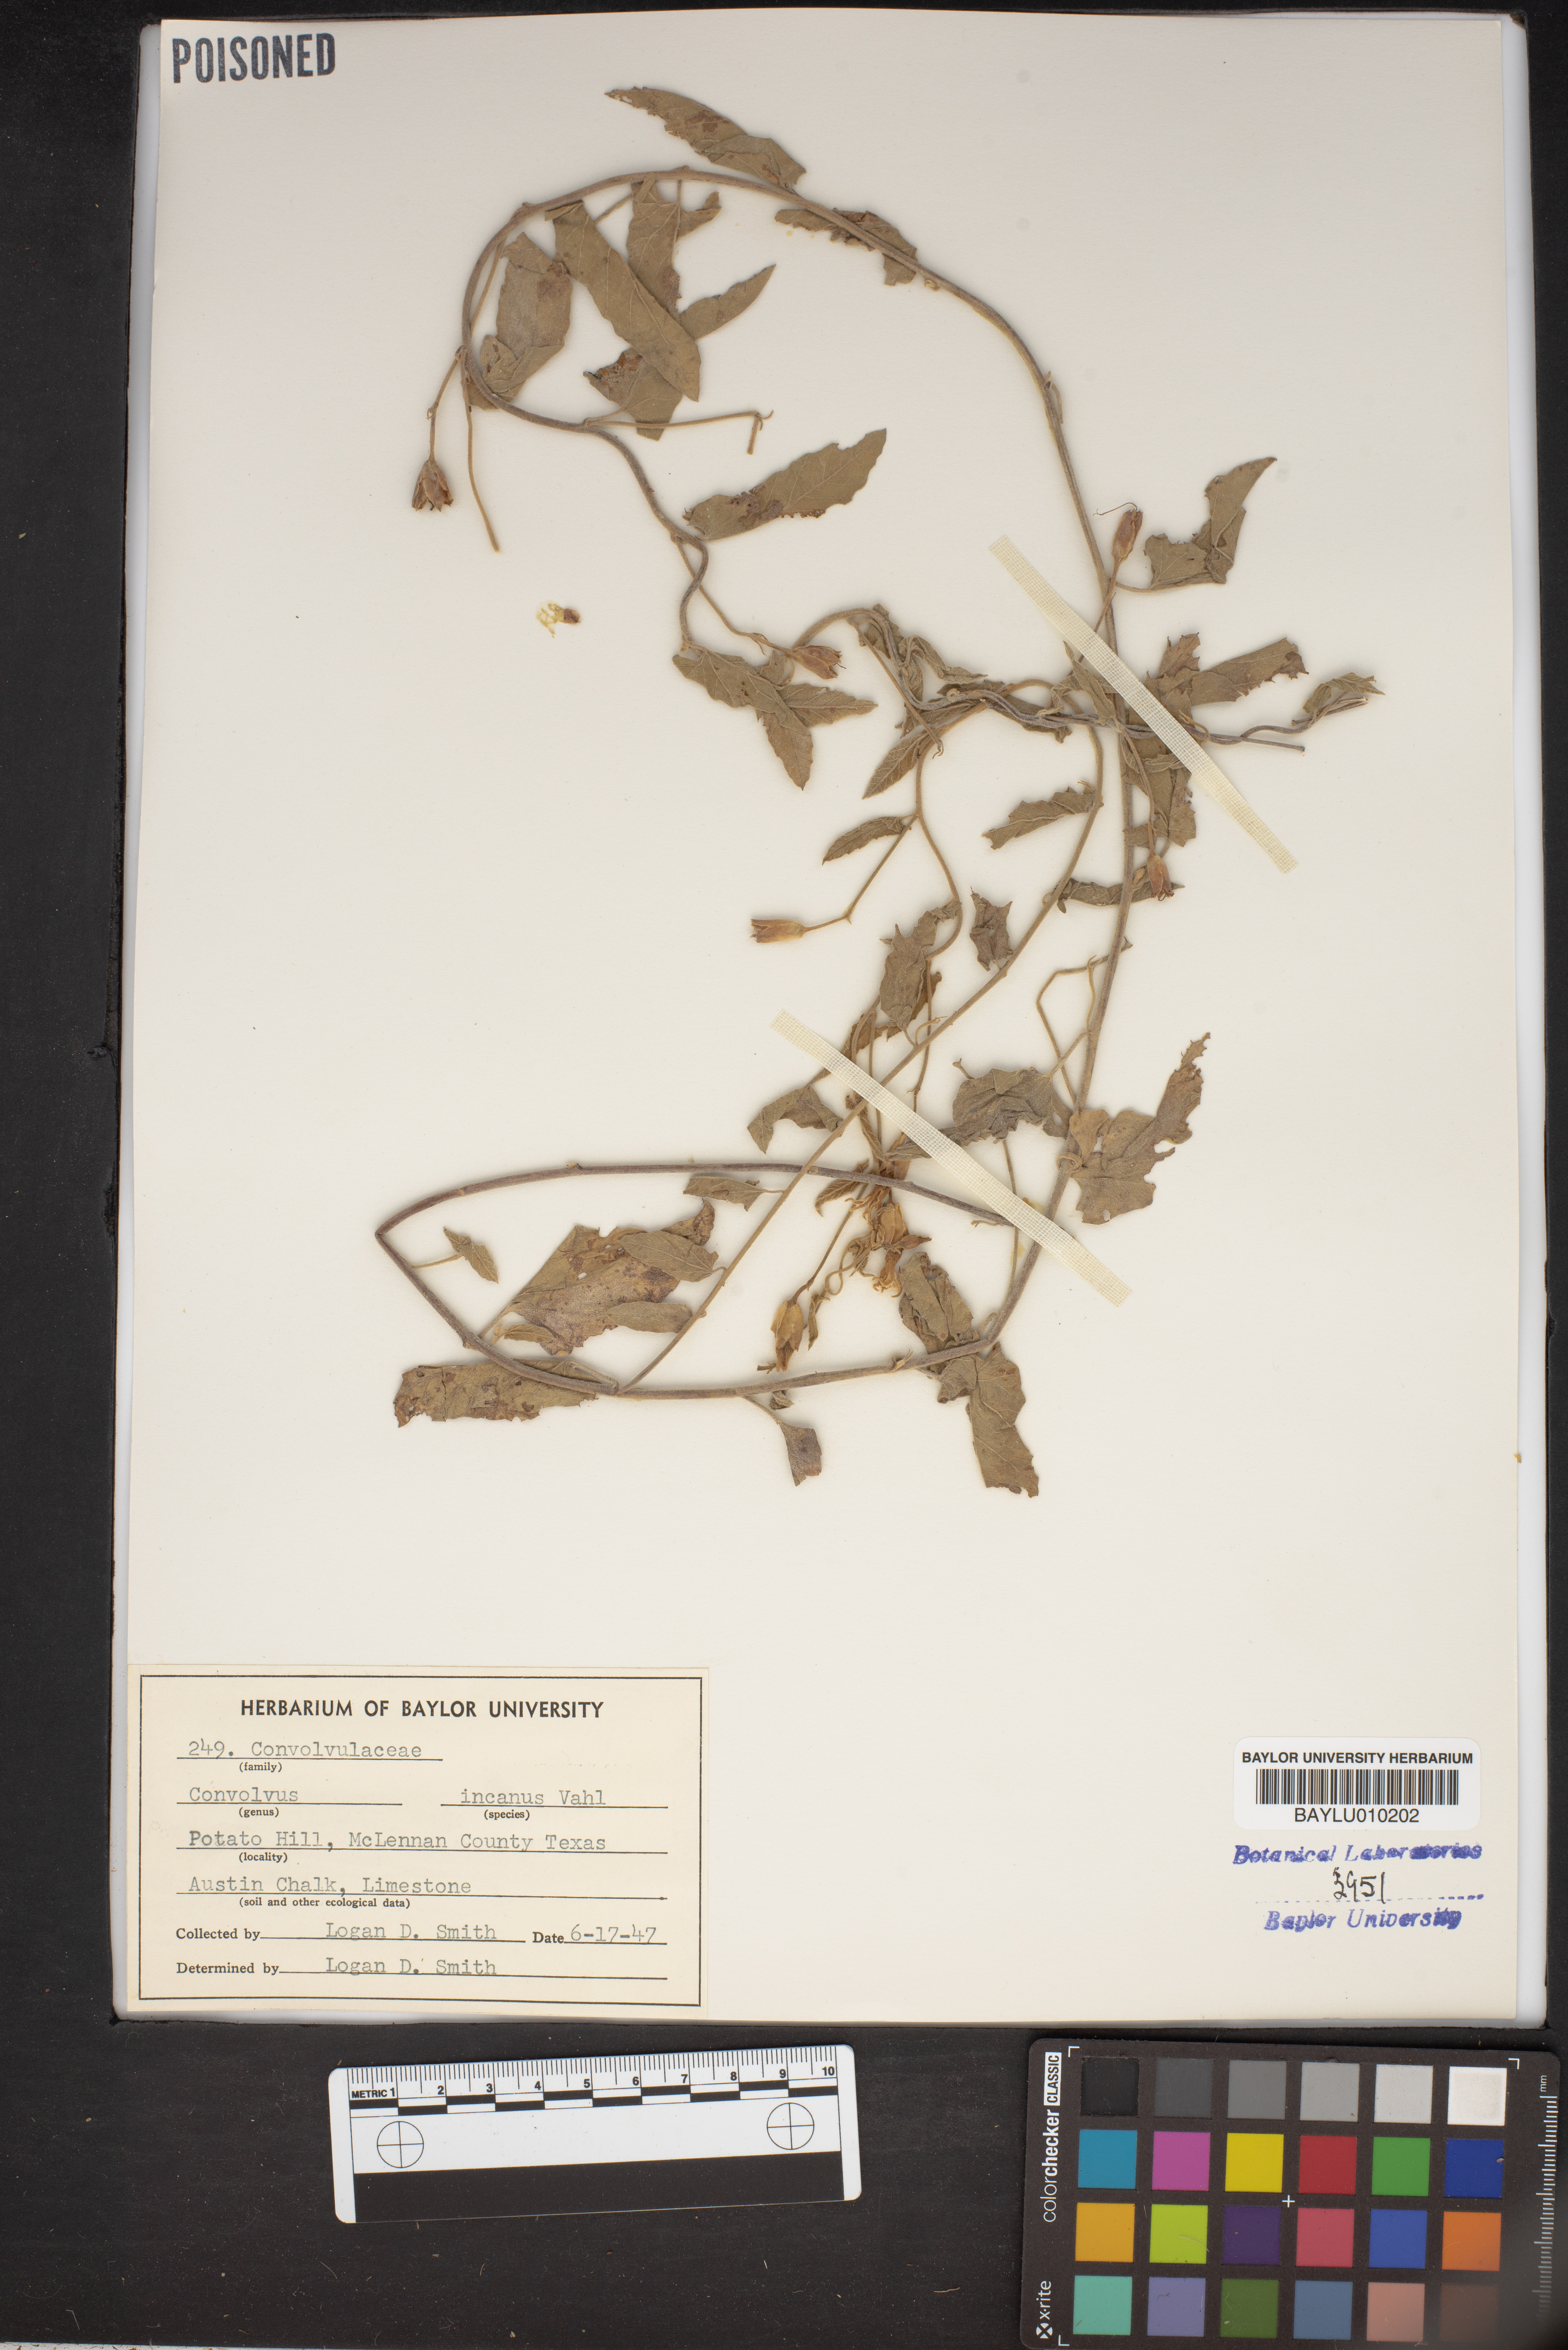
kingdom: Plantae
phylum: Tracheophyta
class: Magnoliopsida
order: Solanales
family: Convolvulaceae
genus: Convolvulus
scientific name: Convolvulus hermanniae
